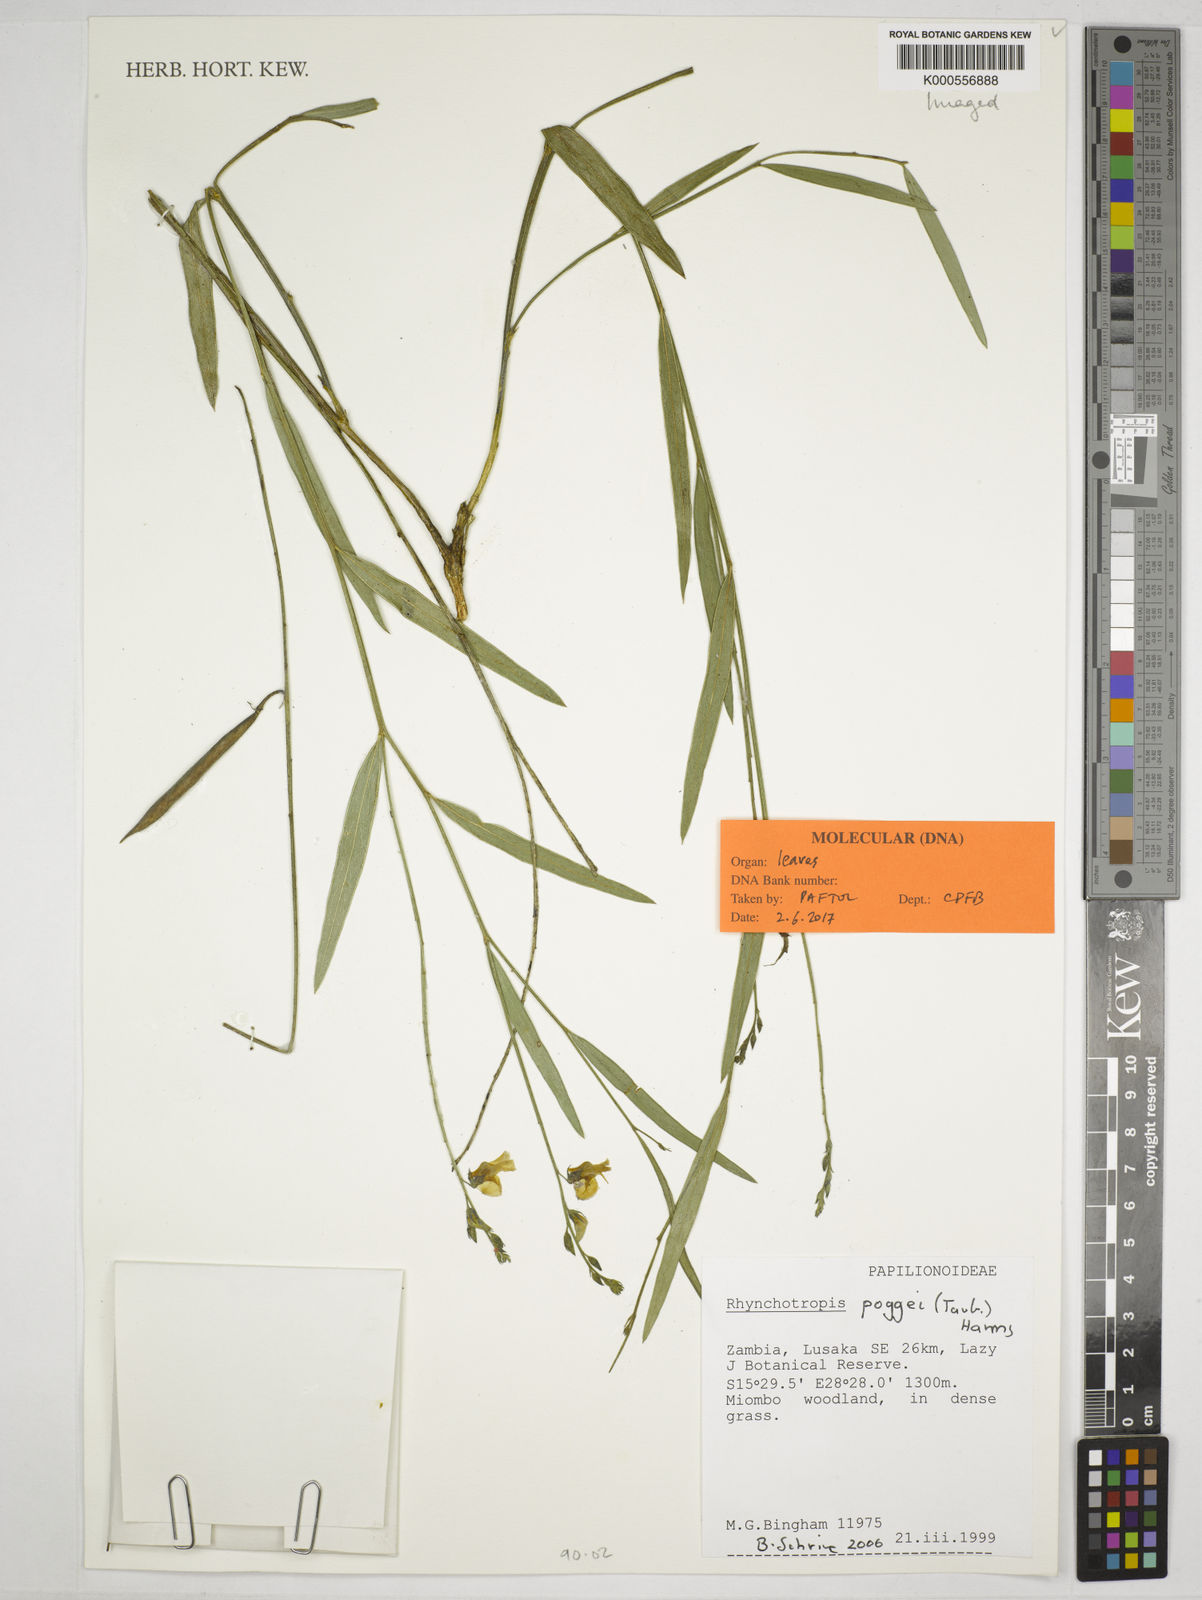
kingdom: Plantae
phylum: Tracheophyta
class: Magnoliopsida
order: Fabales
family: Fabaceae
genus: Rhynchotropis
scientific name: Rhynchotropis poggei
